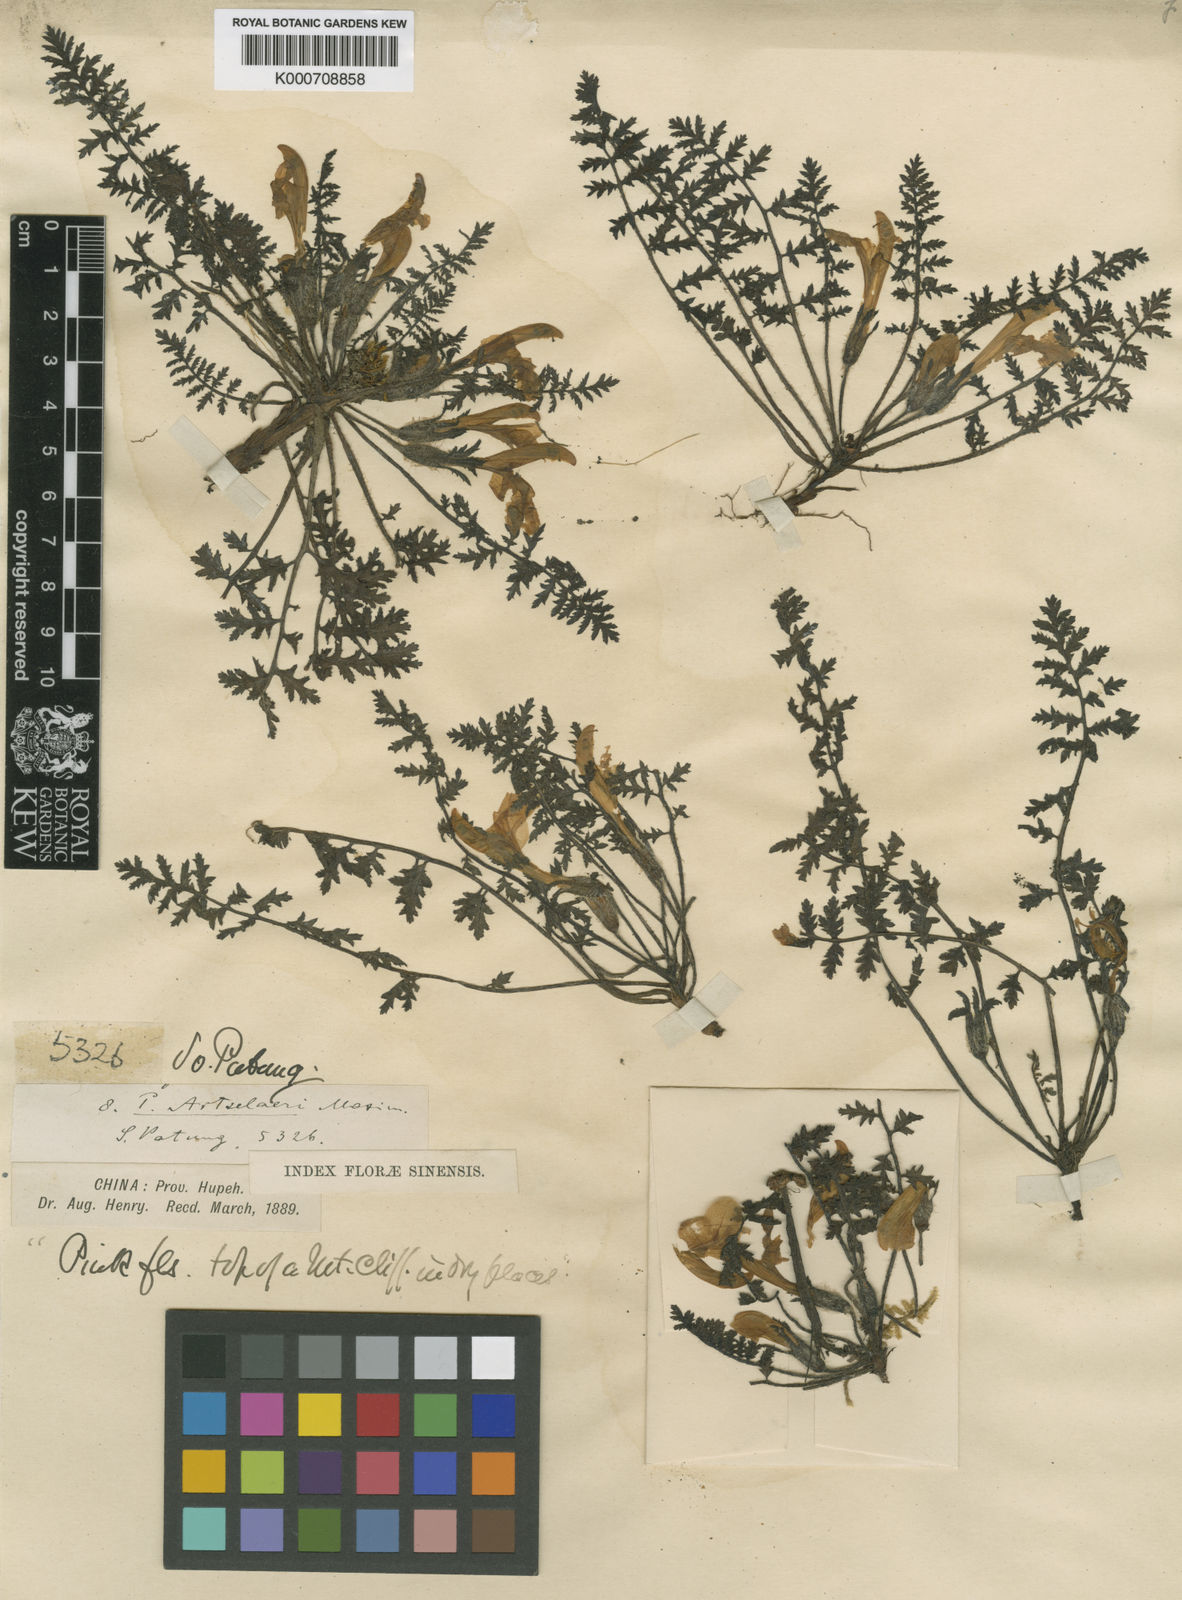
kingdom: Plantae
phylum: Tracheophyta
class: Magnoliopsida
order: Lamiales
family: Orobanchaceae
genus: Pedicularis
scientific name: Pedicularis artselaeri
